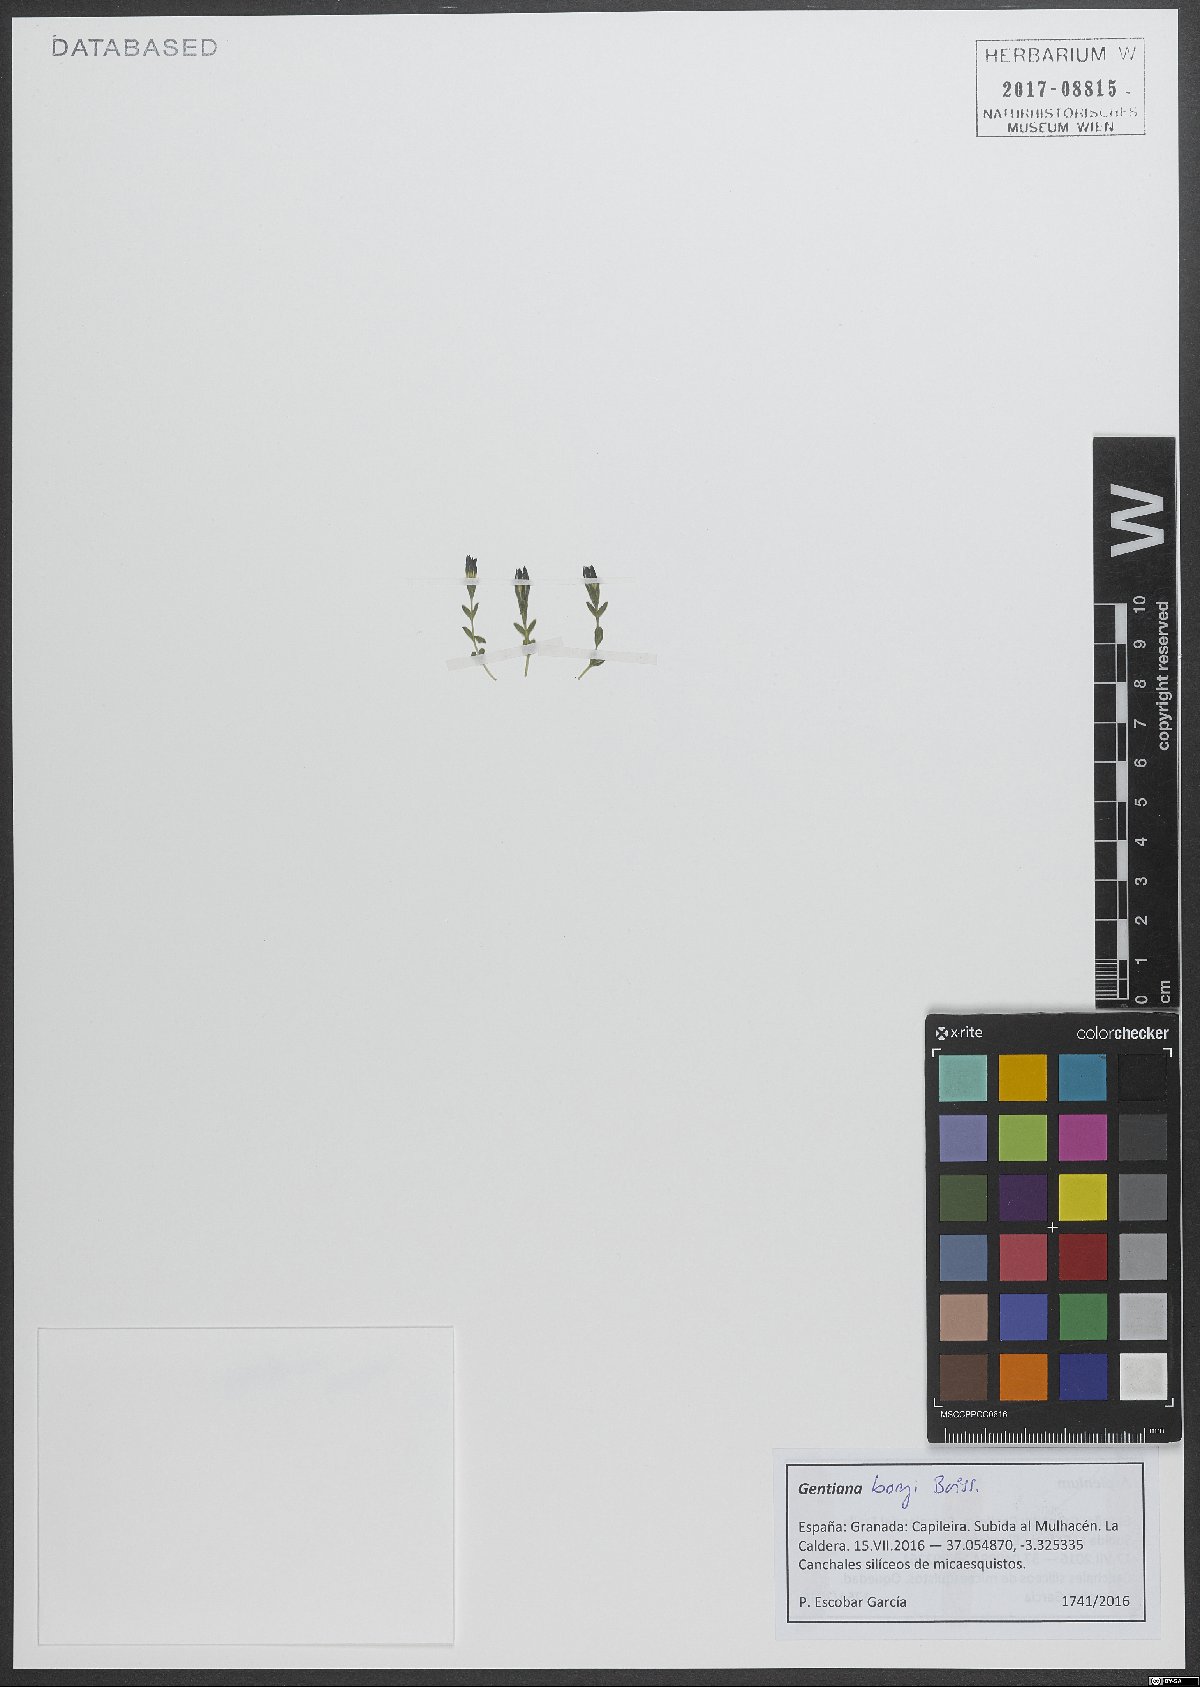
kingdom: Plantae
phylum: Tracheophyta
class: Magnoliopsida
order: Gentianales
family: Gentianaceae
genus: Gentiana
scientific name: Gentiana boryi
